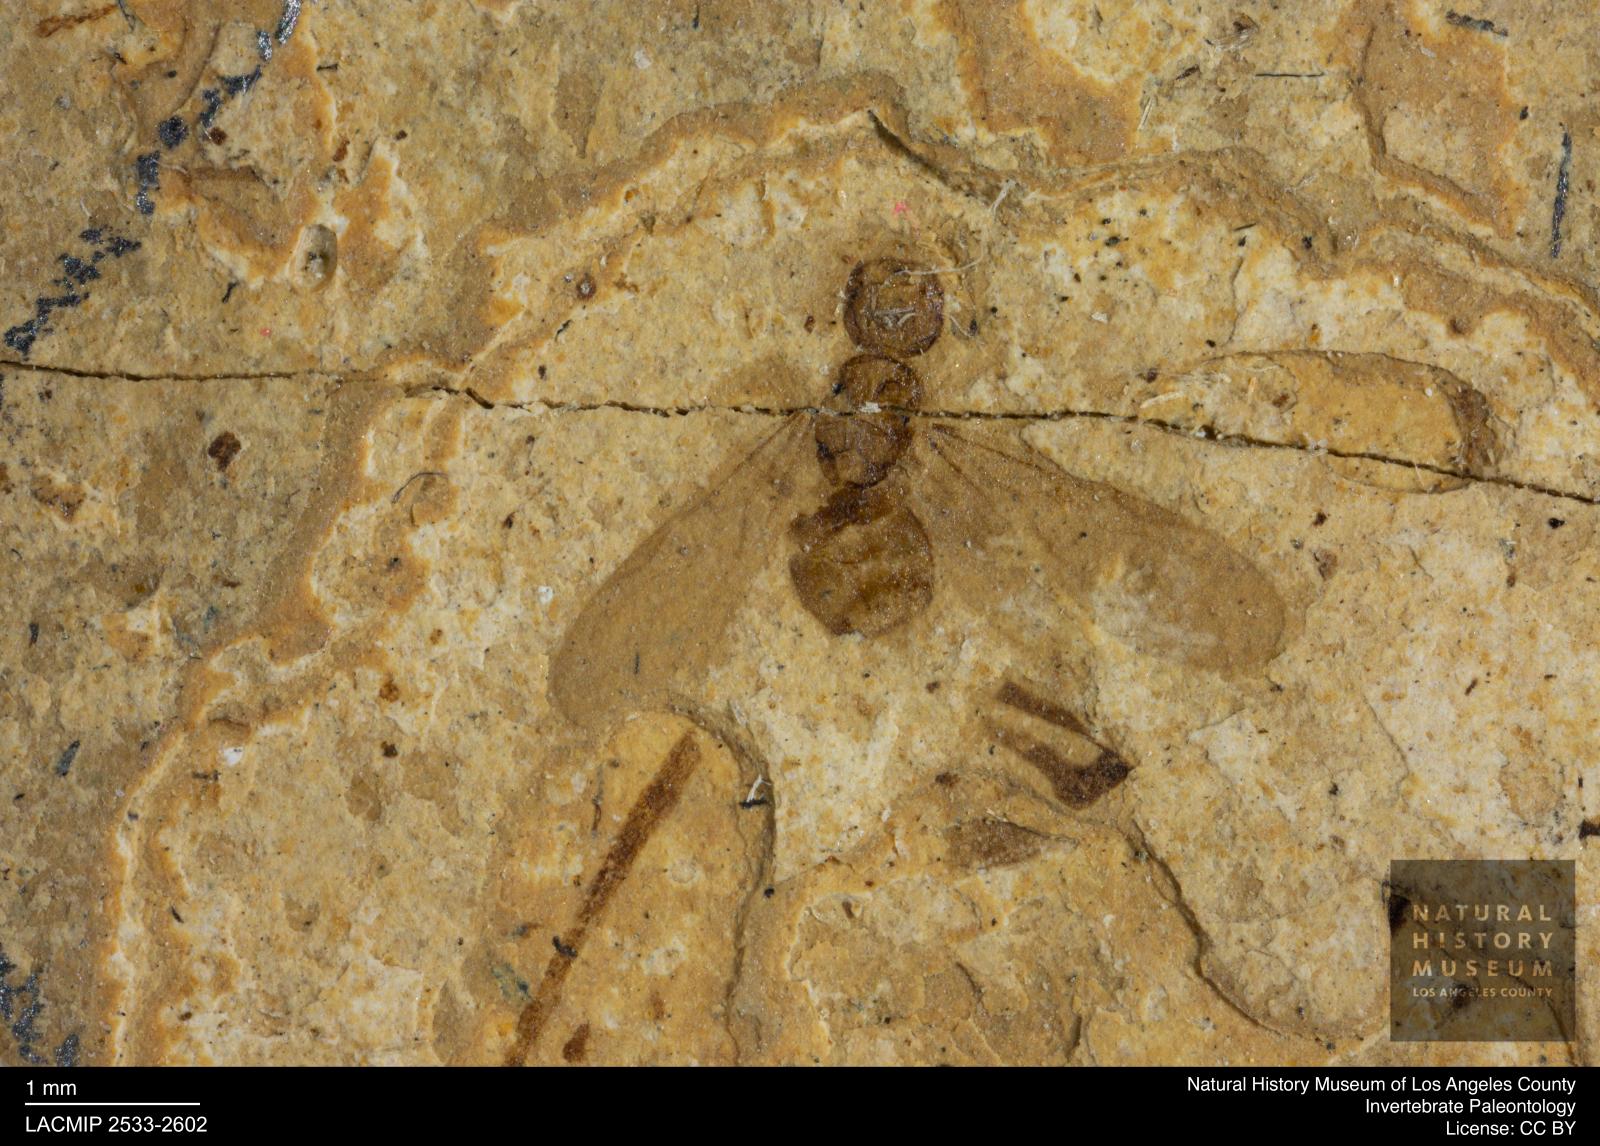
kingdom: Animalia
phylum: Arthropoda
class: Insecta
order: Hymenoptera
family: Formicidae
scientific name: Formicidae
